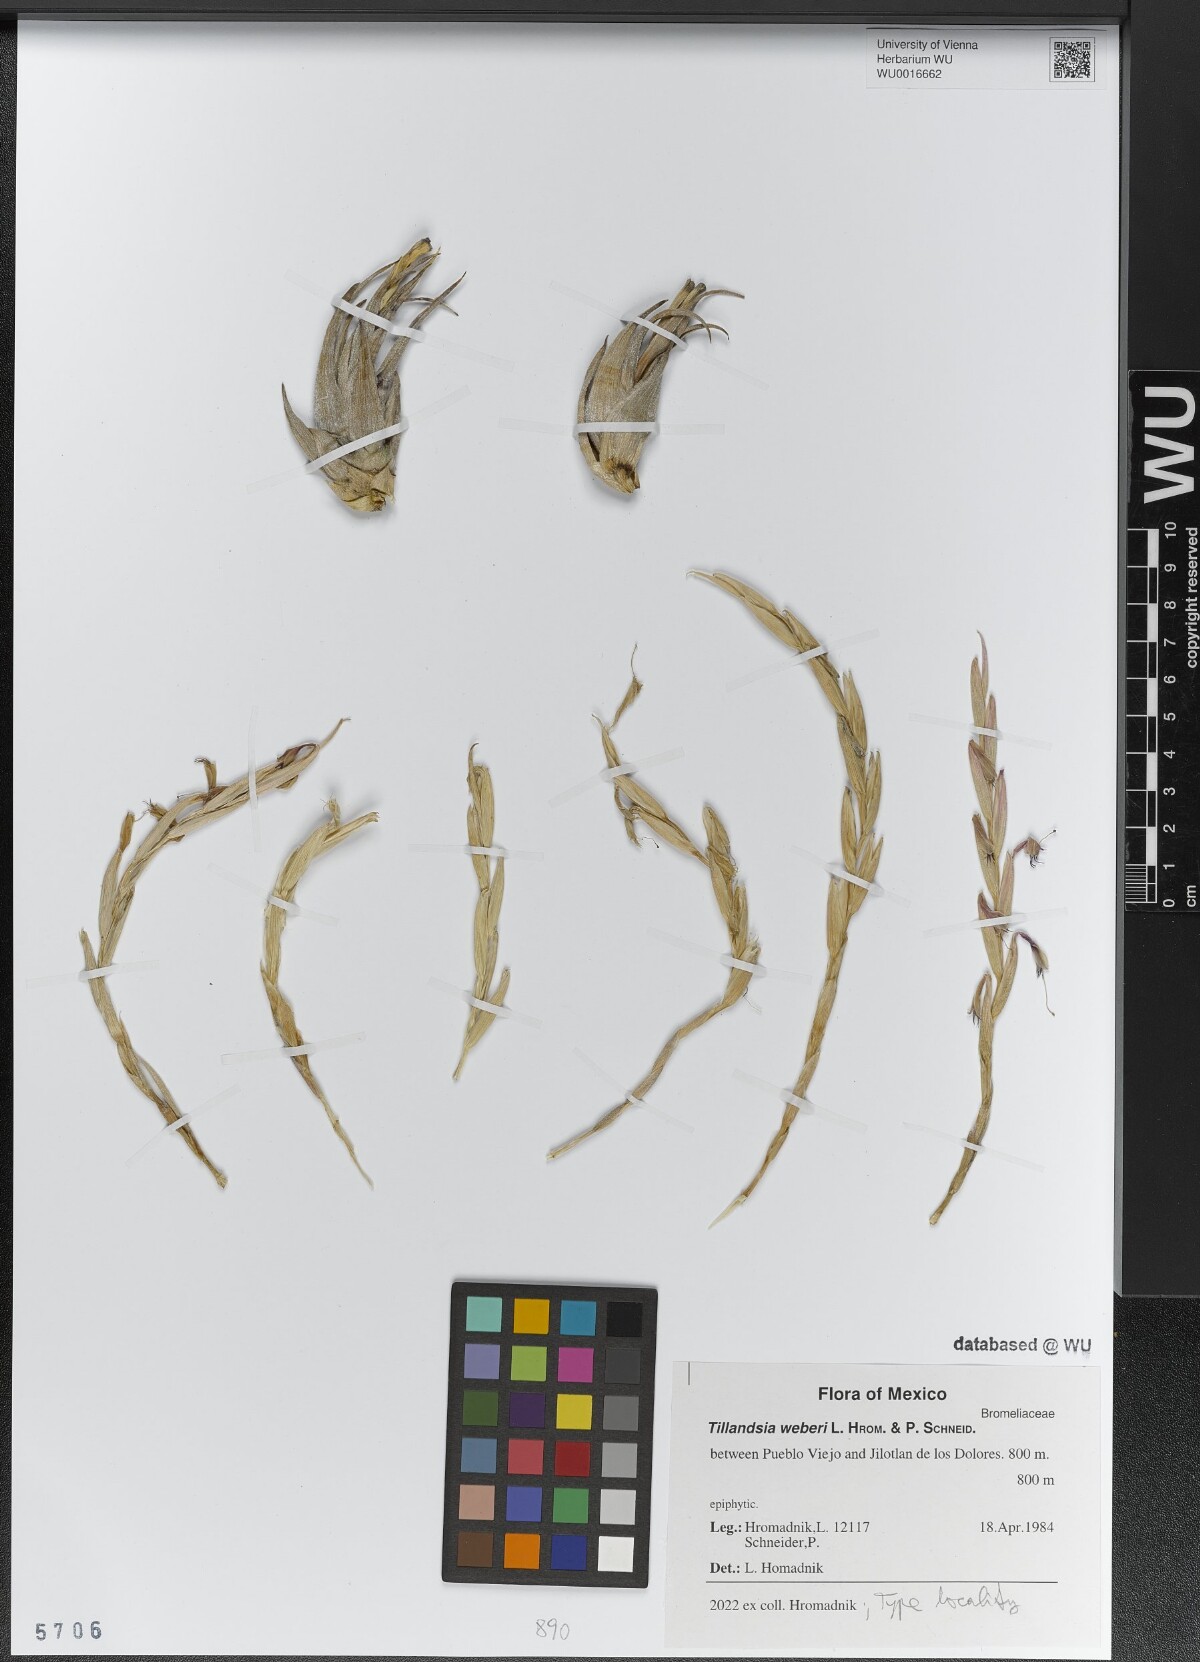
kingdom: Plantae
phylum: Tracheophyta
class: Liliopsida
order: Poales
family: Bromeliaceae
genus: Tillandsia
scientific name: Tillandsia weberi
